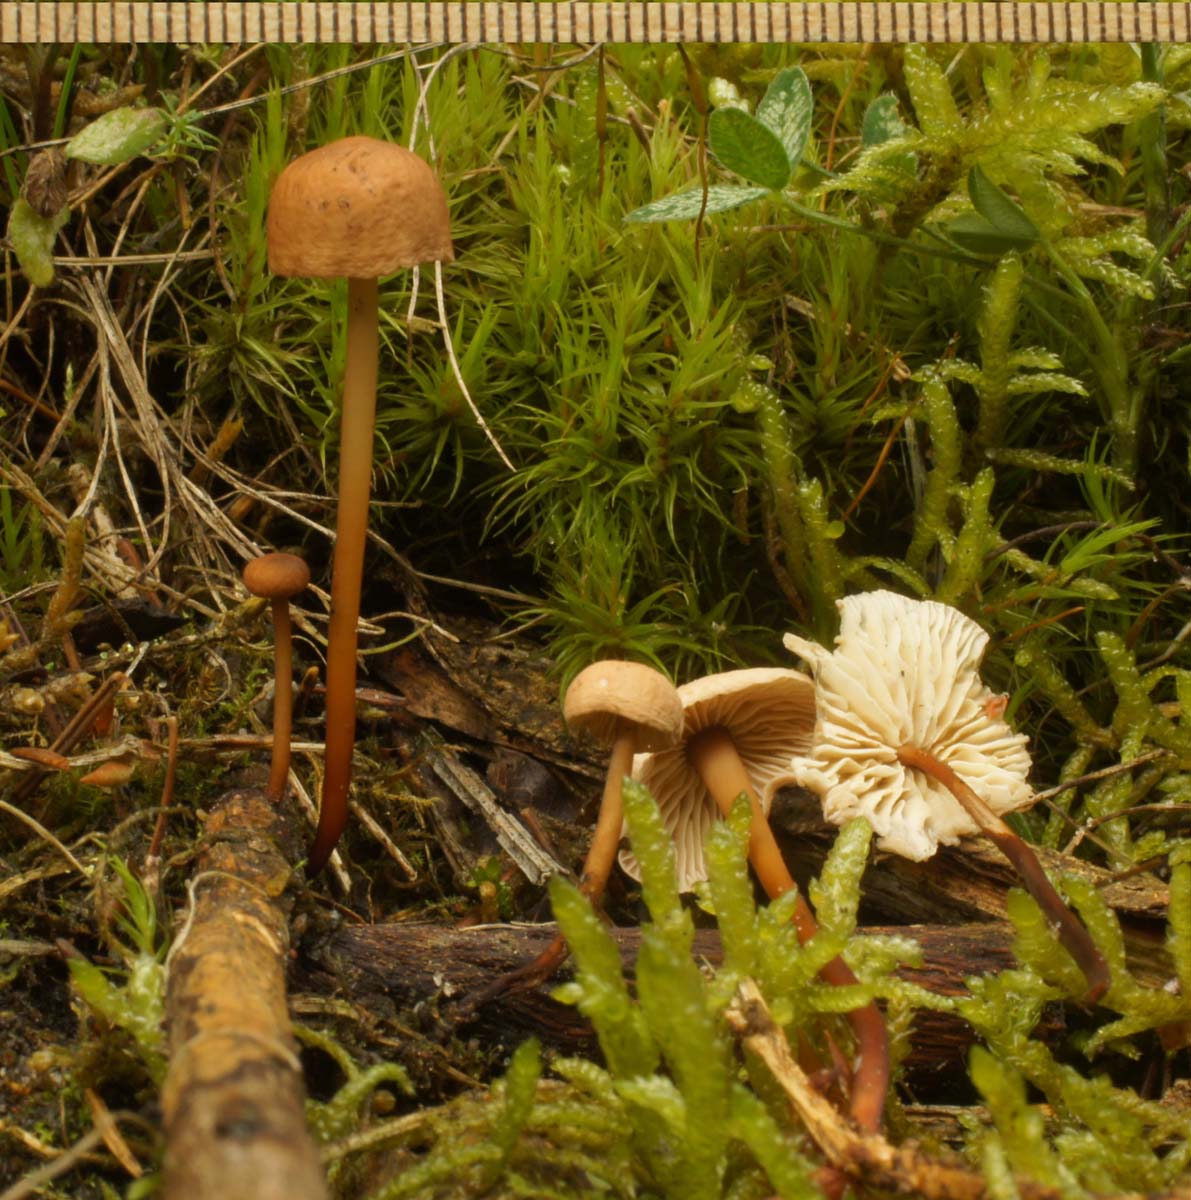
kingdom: Fungi
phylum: Basidiomycota
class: Agaricomycetes
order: Agaricales
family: Omphalotaceae
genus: Mycetinis
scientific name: Mycetinis scorodonius
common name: lille løghat
